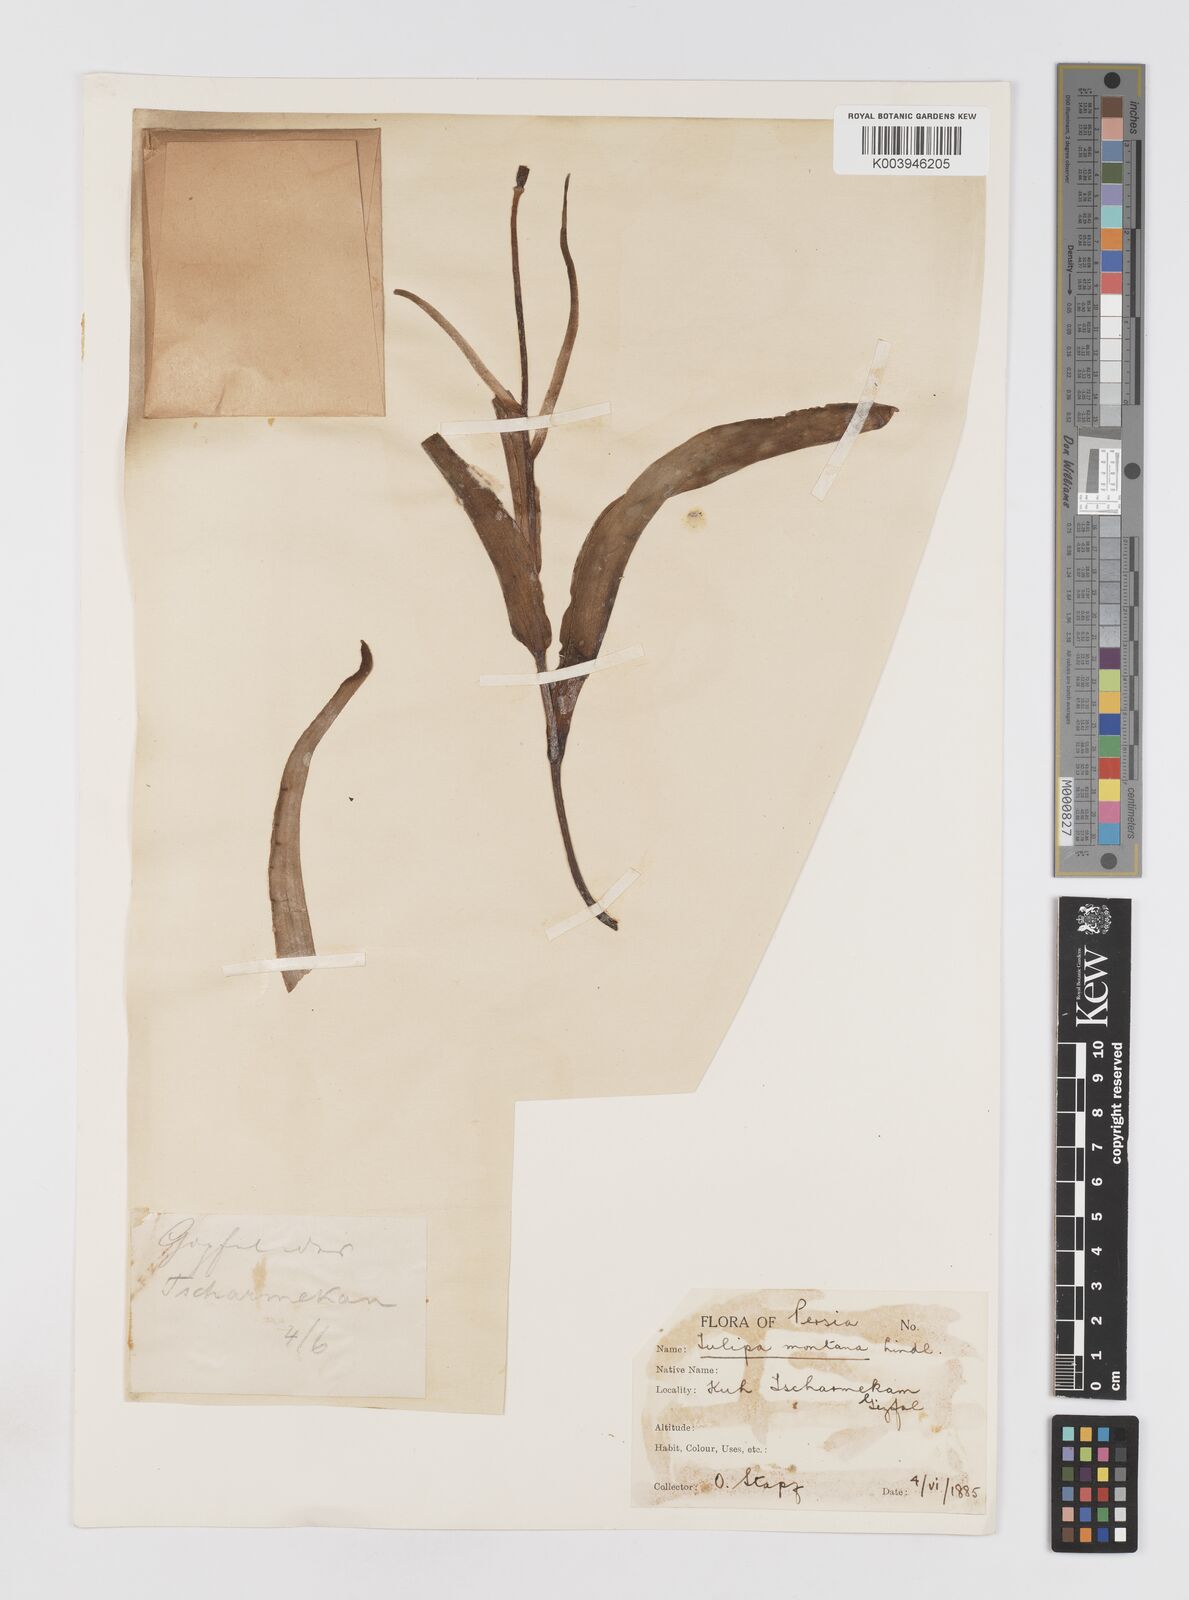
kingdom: Plantae
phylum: Tracheophyta
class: Liliopsida
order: Liliales
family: Liliaceae
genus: Tulipa
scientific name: Tulipa montana
